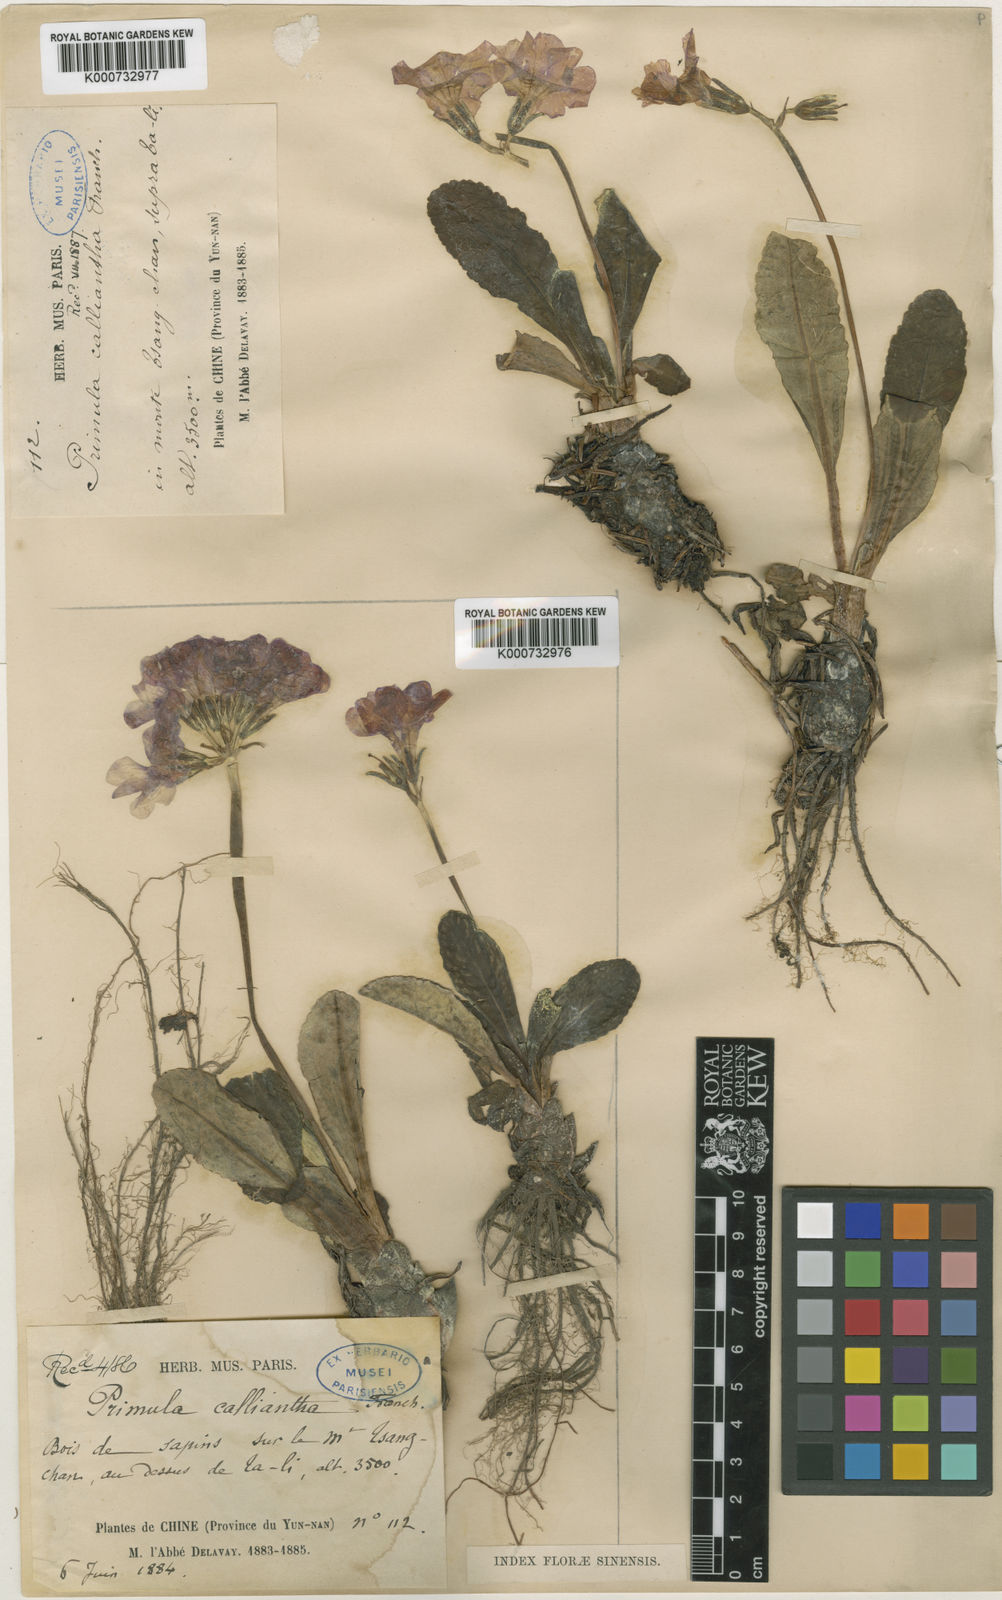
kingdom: Plantae
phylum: Tracheophyta
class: Magnoliopsida
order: Ericales
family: Primulaceae
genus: Primula
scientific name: Primula calliantha
